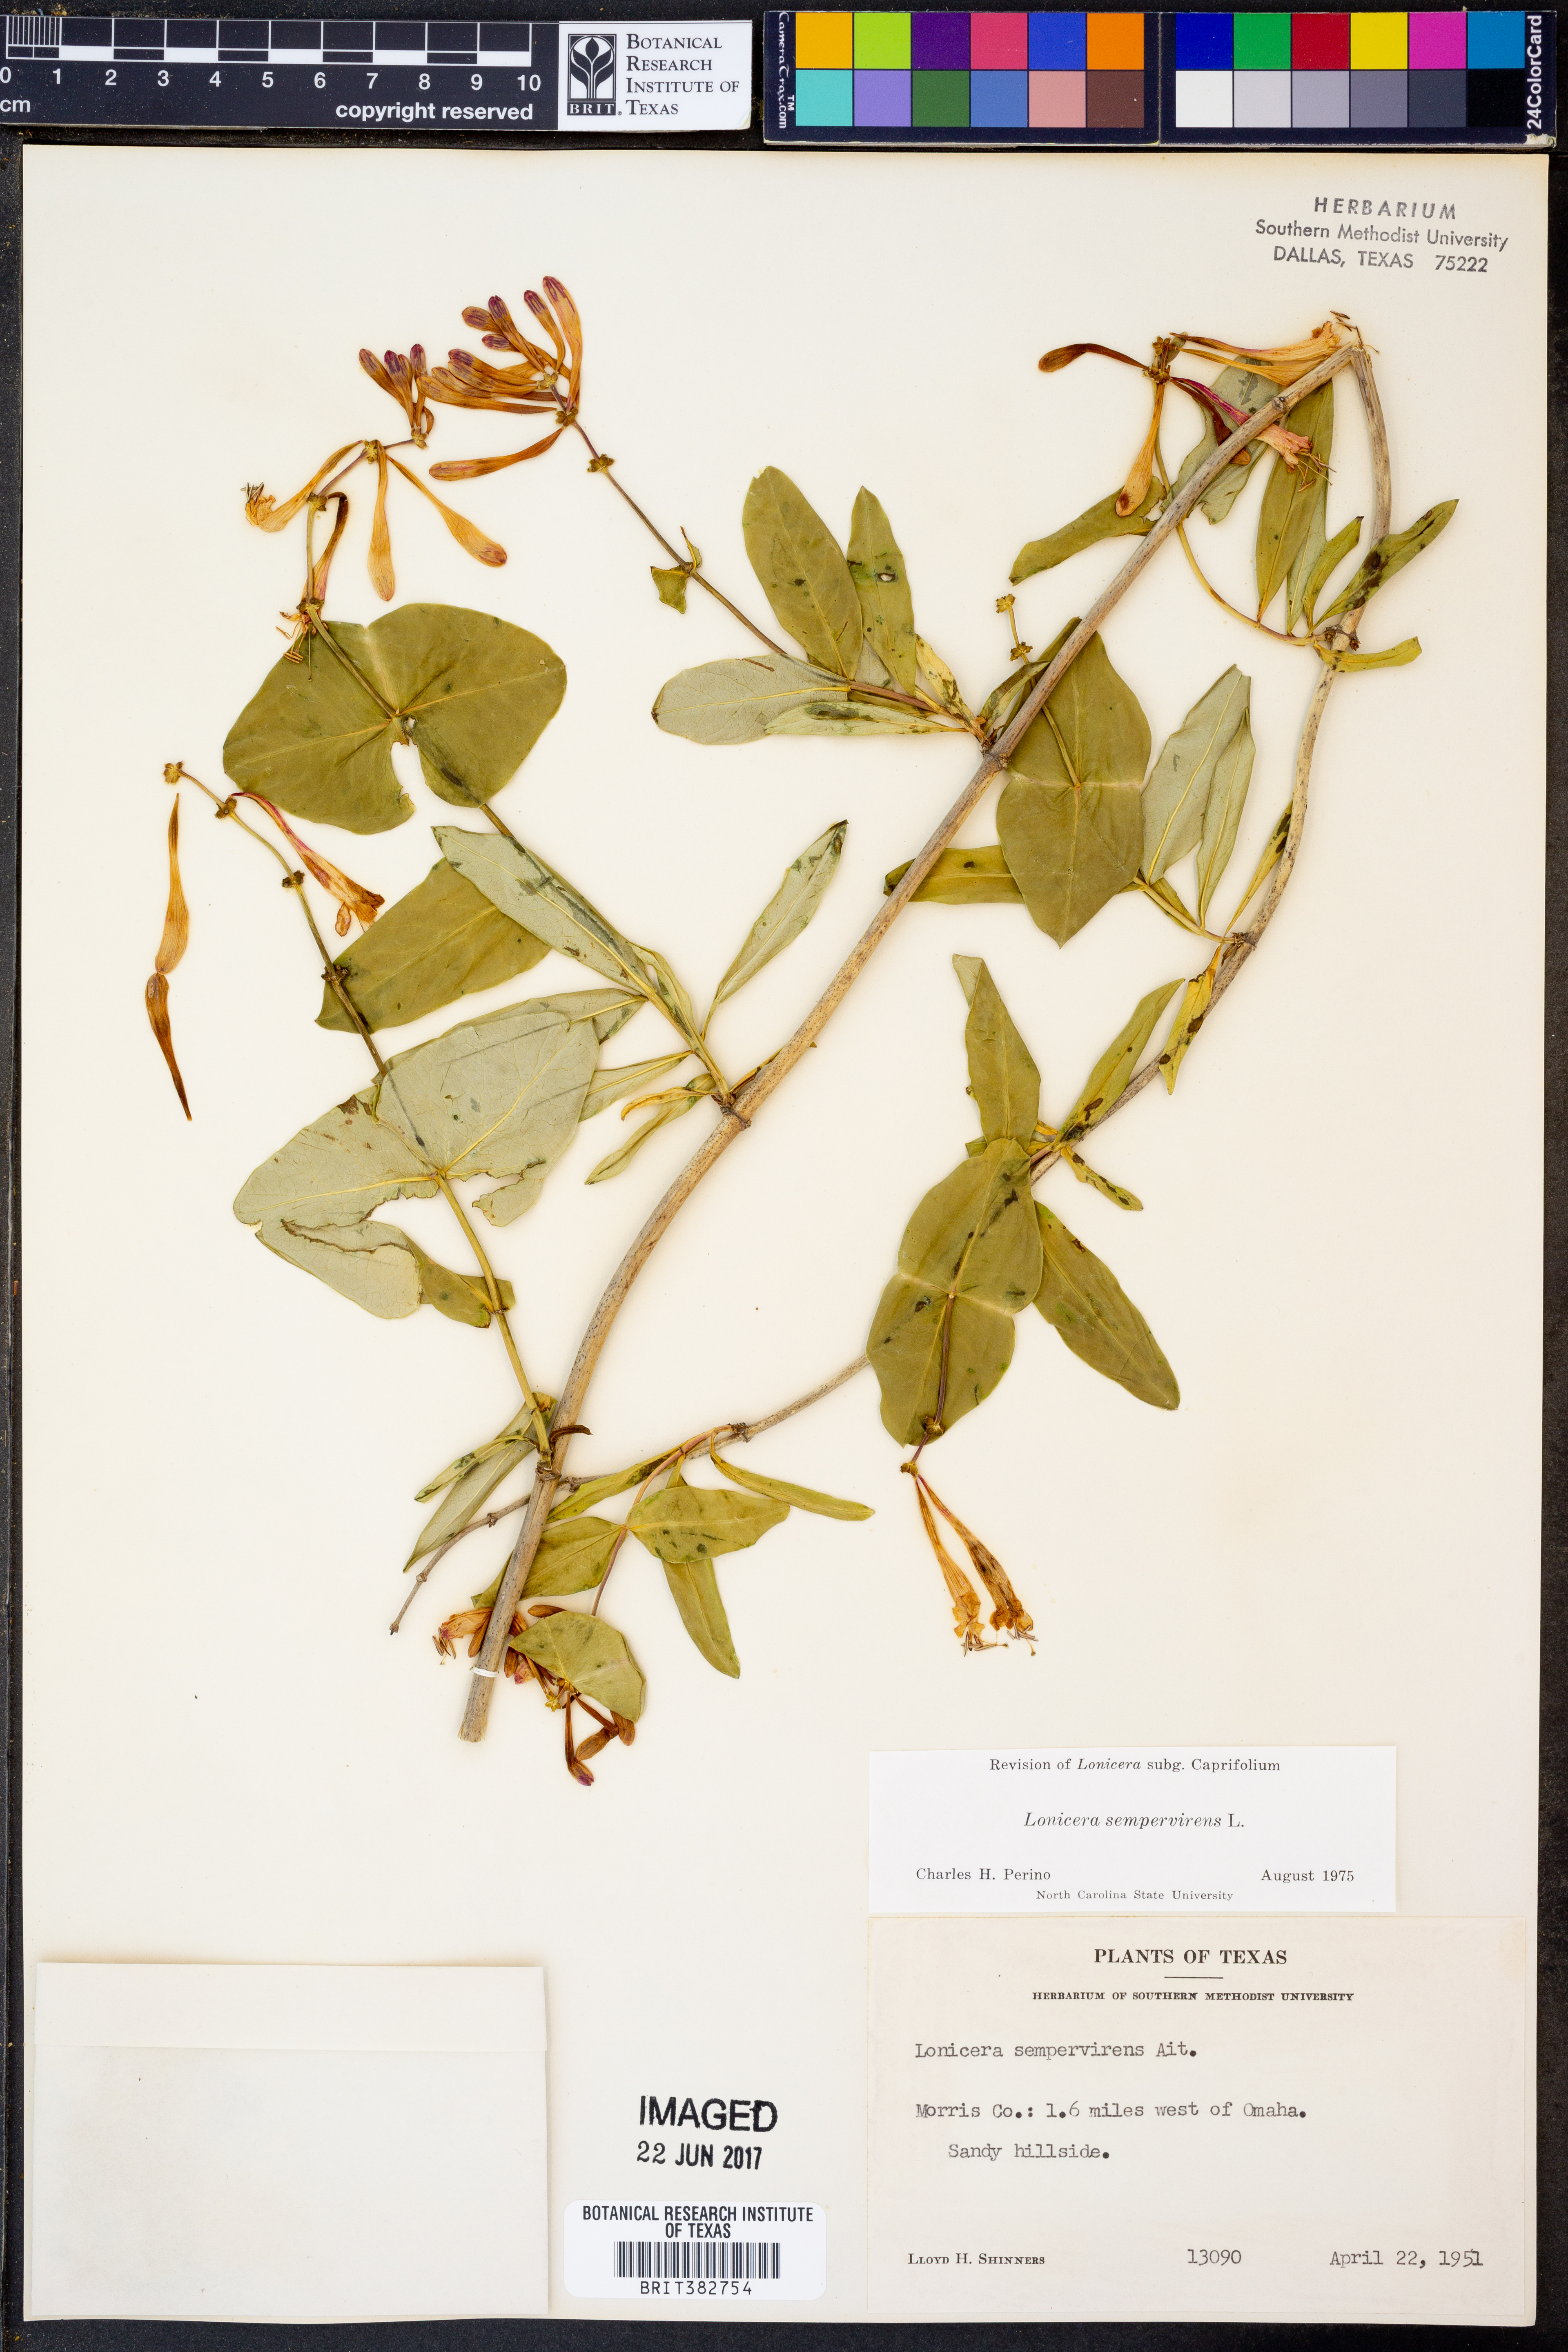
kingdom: Plantae
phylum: Tracheophyta
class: Magnoliopsida
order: Dipsacales
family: Caprifoliaceae
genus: Lonicera
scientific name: Lonicera sempervirens
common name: Coral honeysuckle
